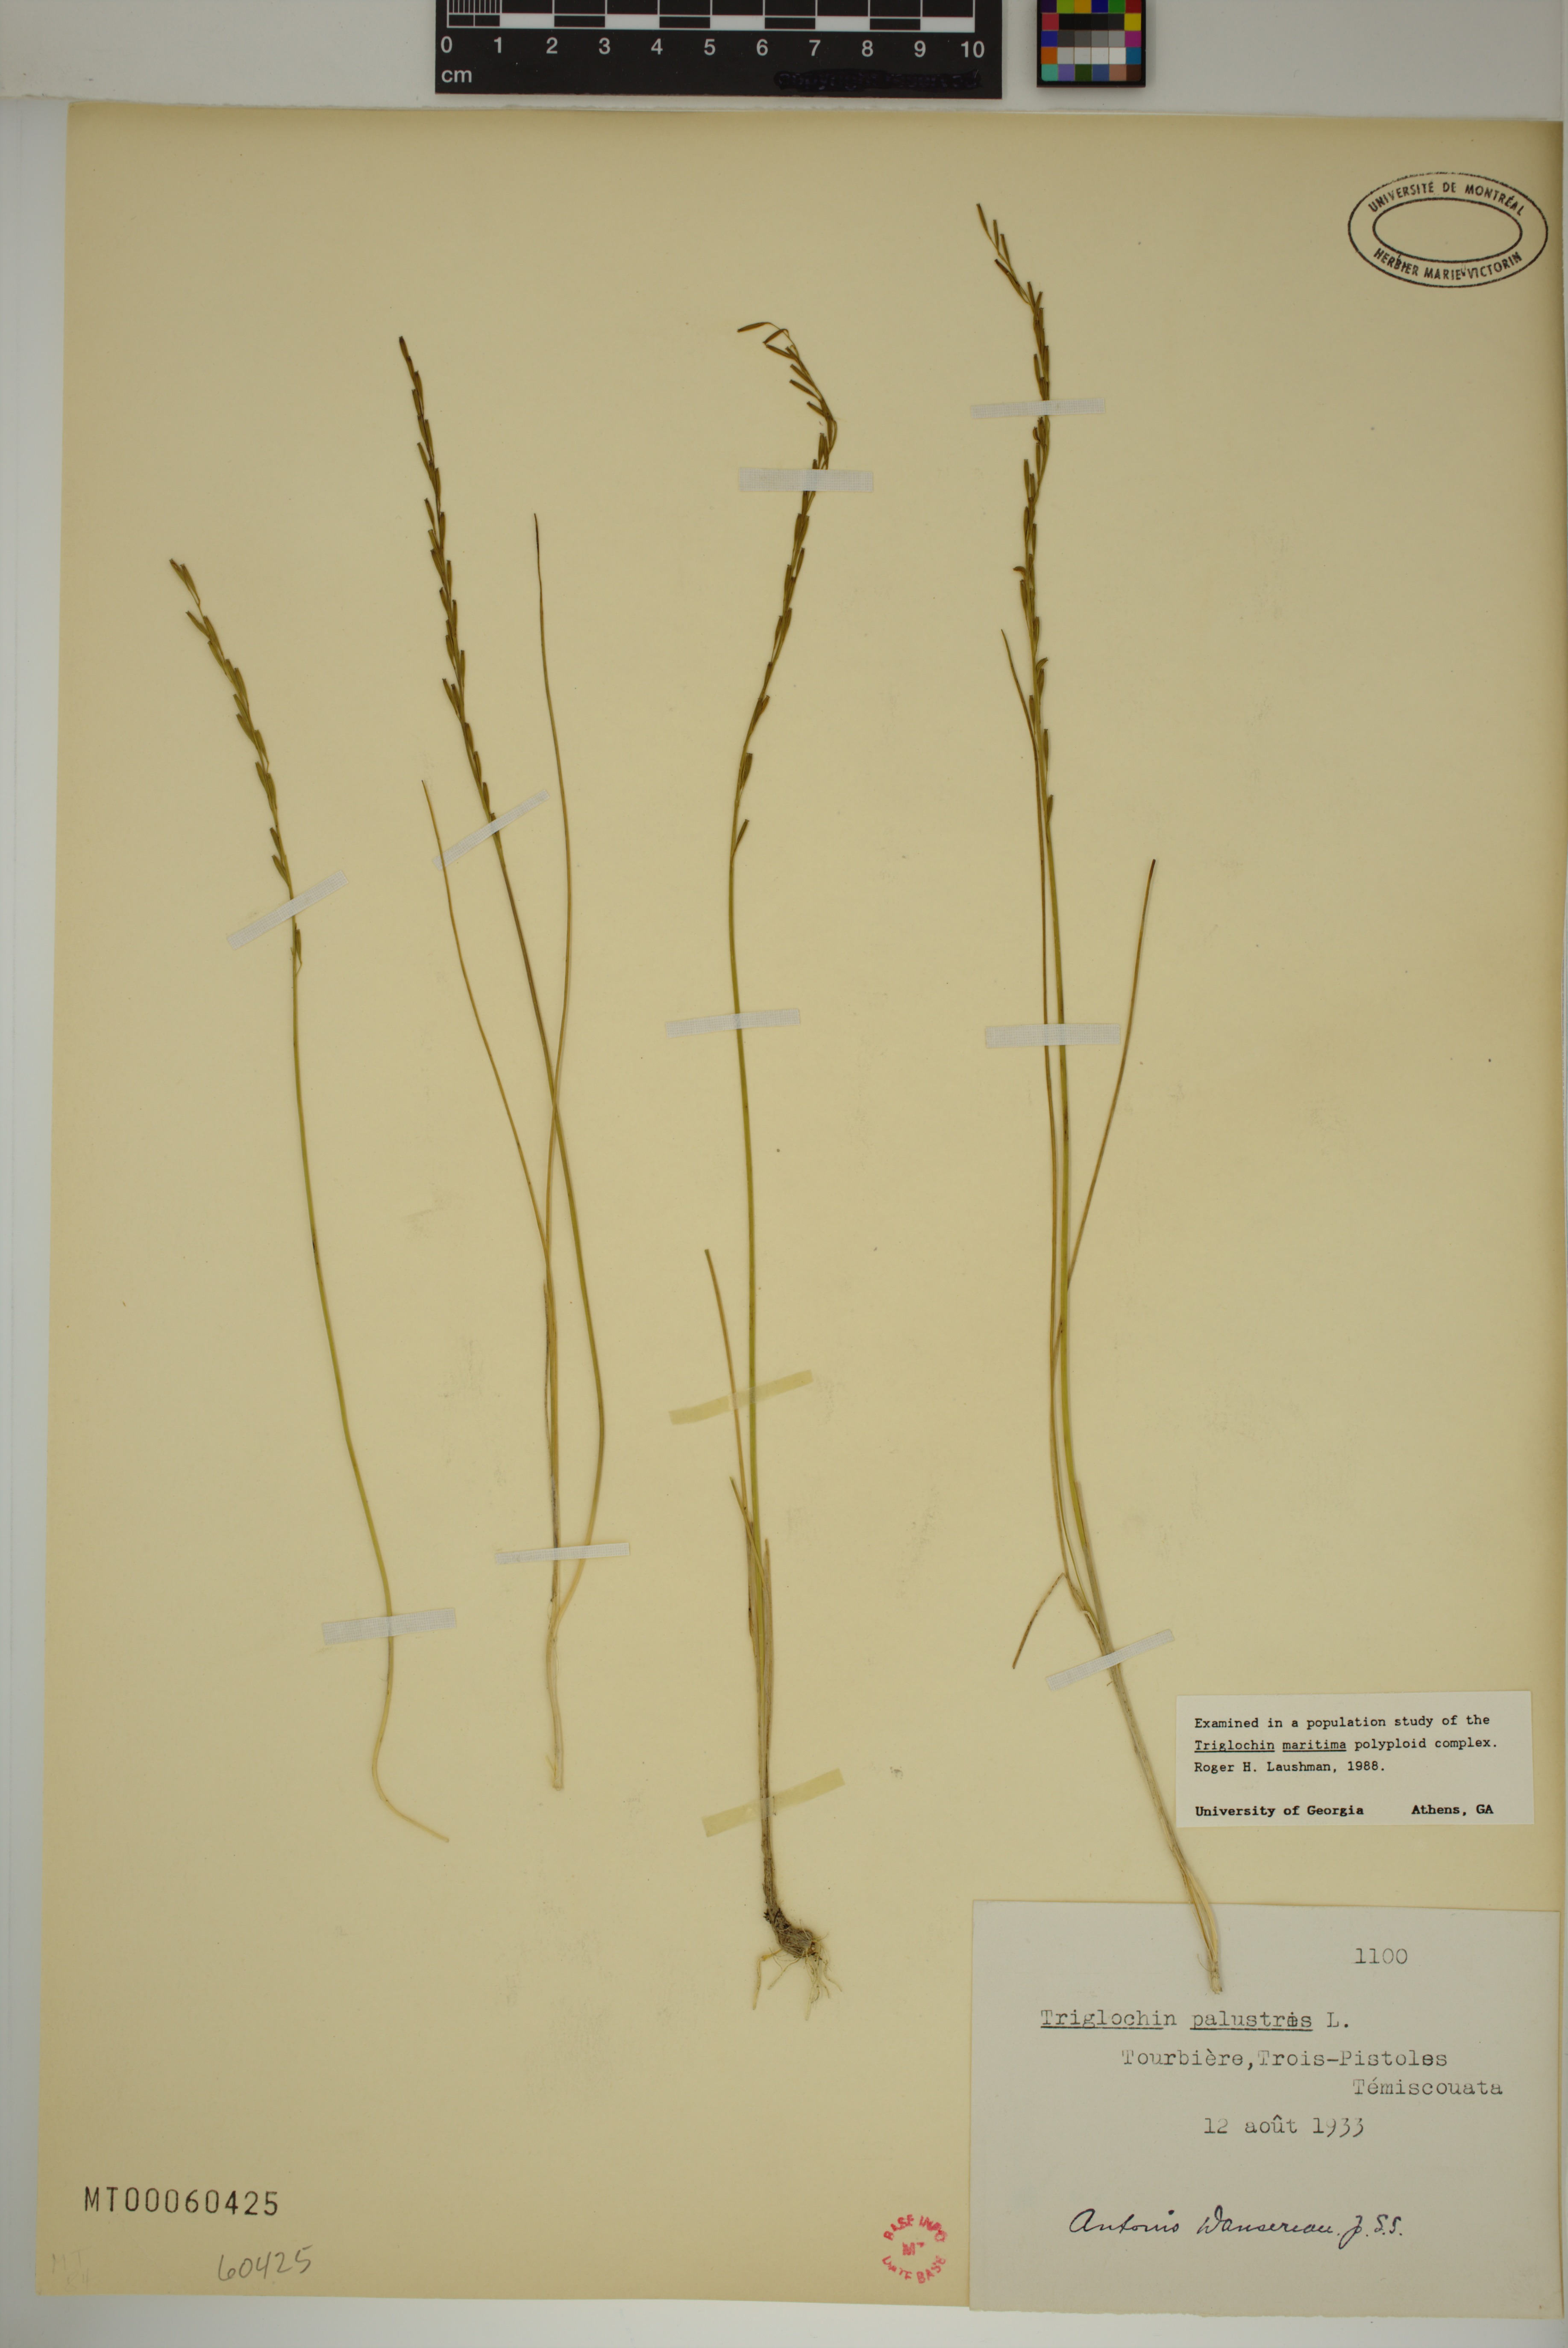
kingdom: Plantae
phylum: Tracheophyta
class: Liliopsida
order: Alismatales
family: Juncaginaceae
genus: Triglochin
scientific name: Triglochin palustris
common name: Marsh arrowgrass
